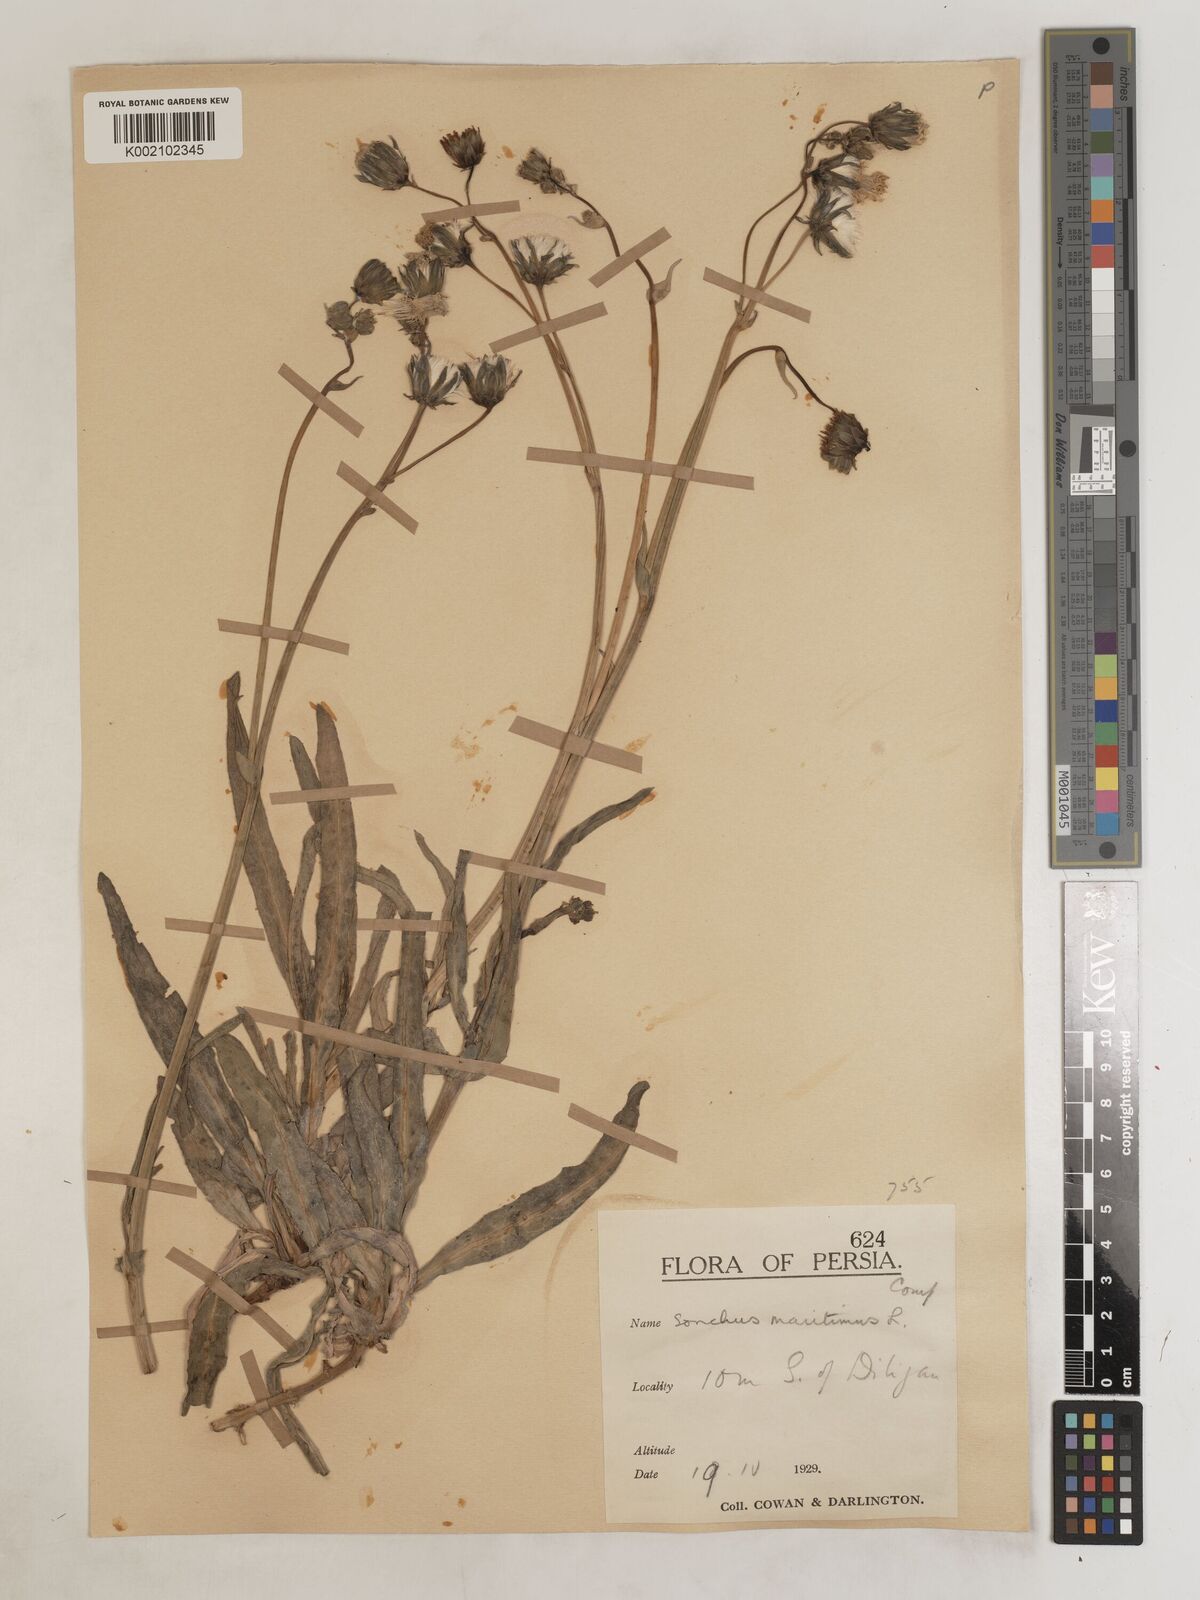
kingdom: Plantae
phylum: Tracheophyta
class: Magnoliopsida
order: Asterales
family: Asteraceae
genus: Sonchus
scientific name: Sonchus maritimus
